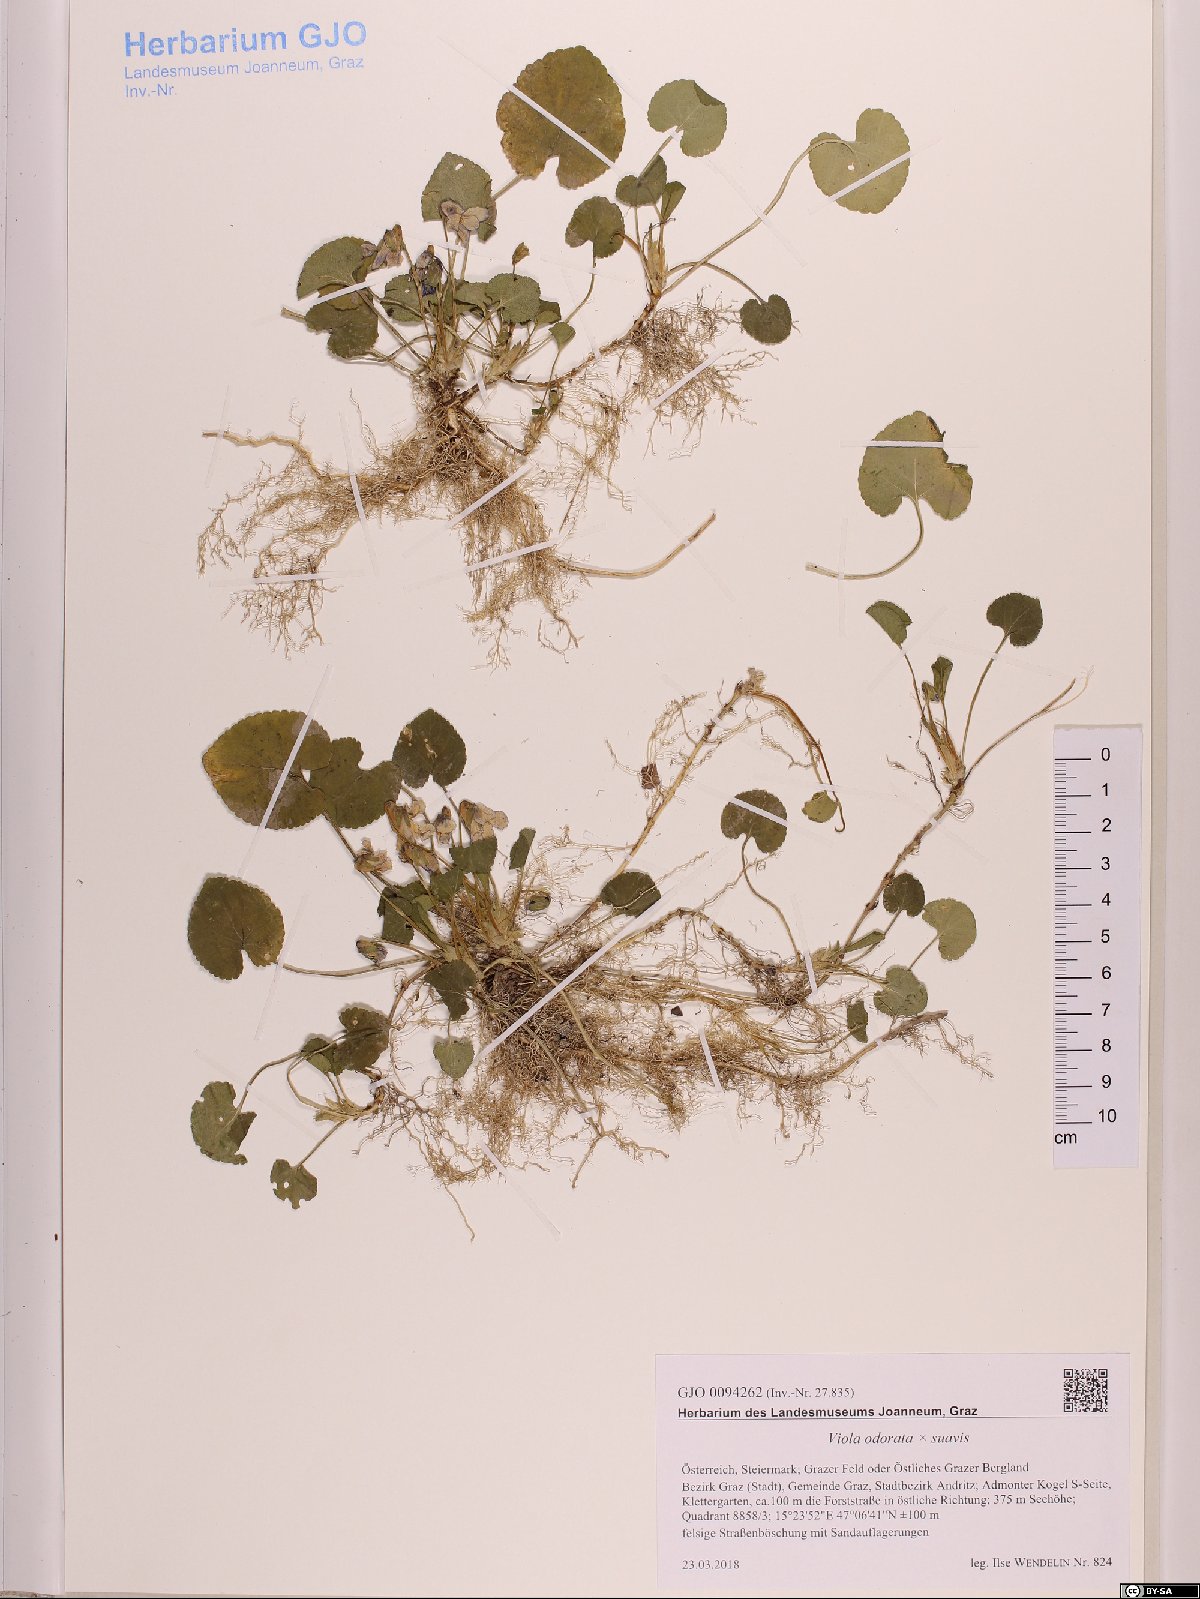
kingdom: Plantae
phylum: Tracheophyta
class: Magnoliopsida
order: Malpighiales
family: Violaceae
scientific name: Violaceae
